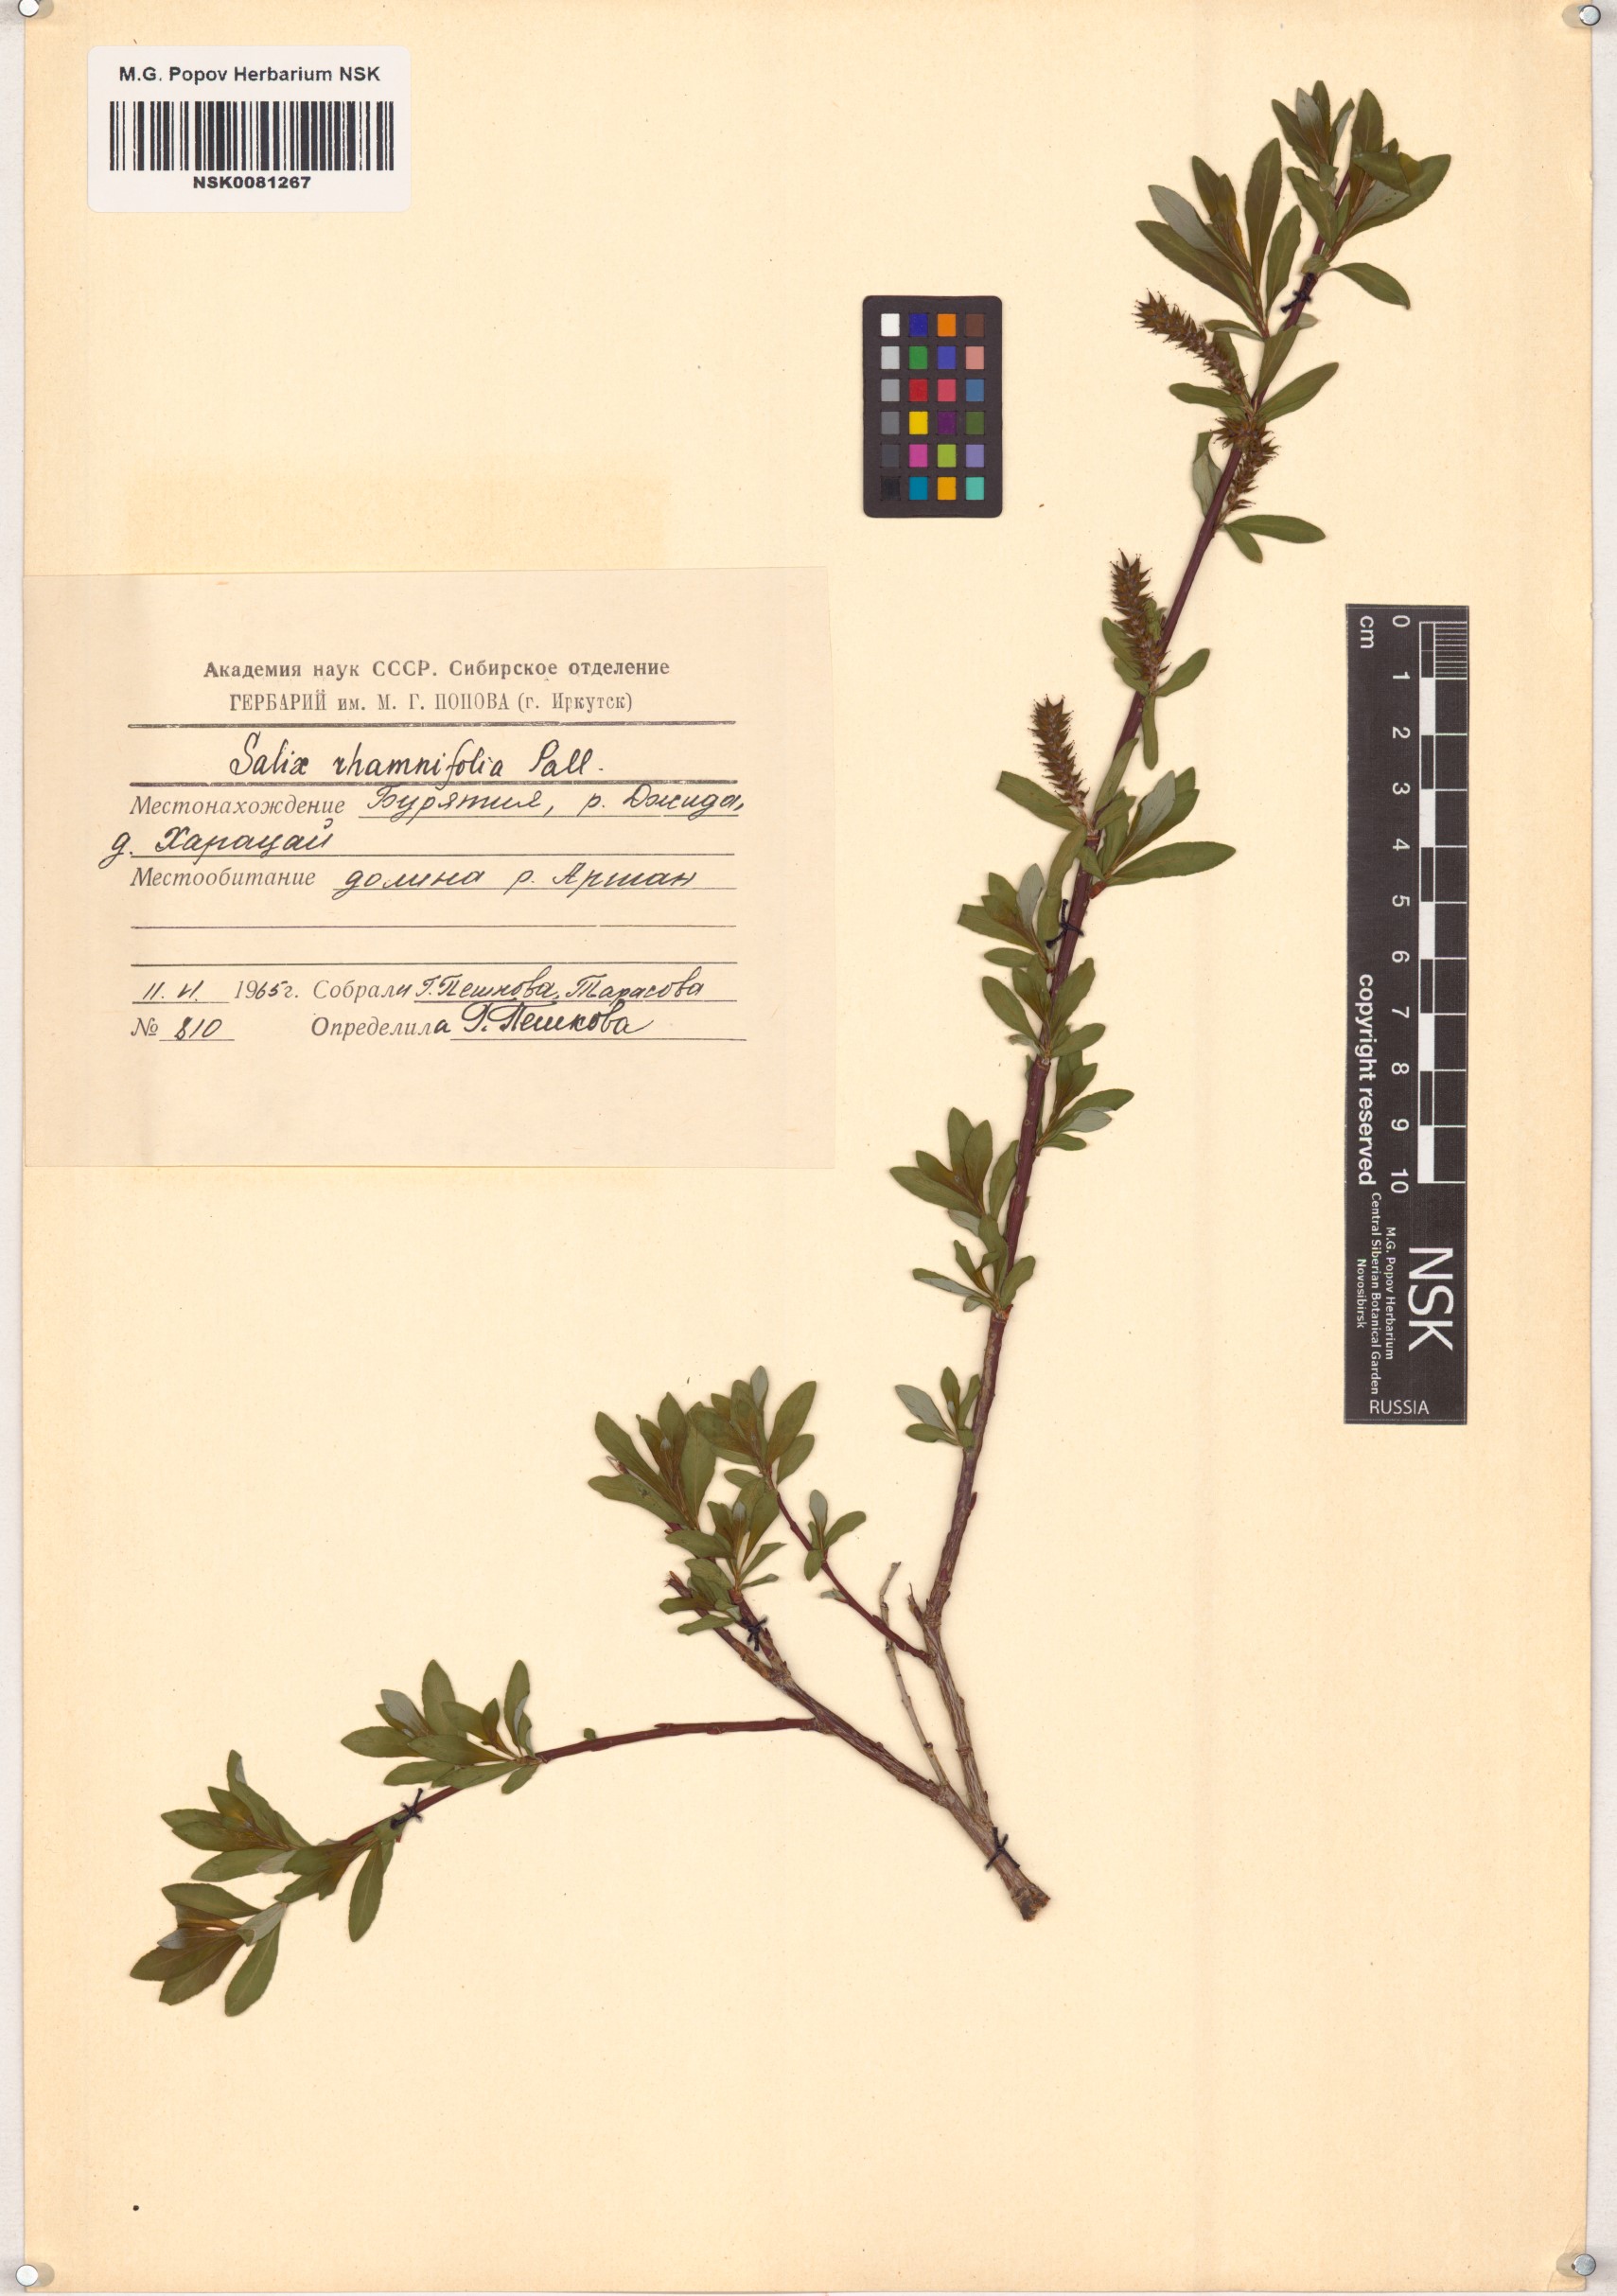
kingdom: Plantae
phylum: Tracheophyta
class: Magnoliopsida
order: Malpighiales
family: Salicaceae
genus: Salix
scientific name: Salix rhamnifolia
